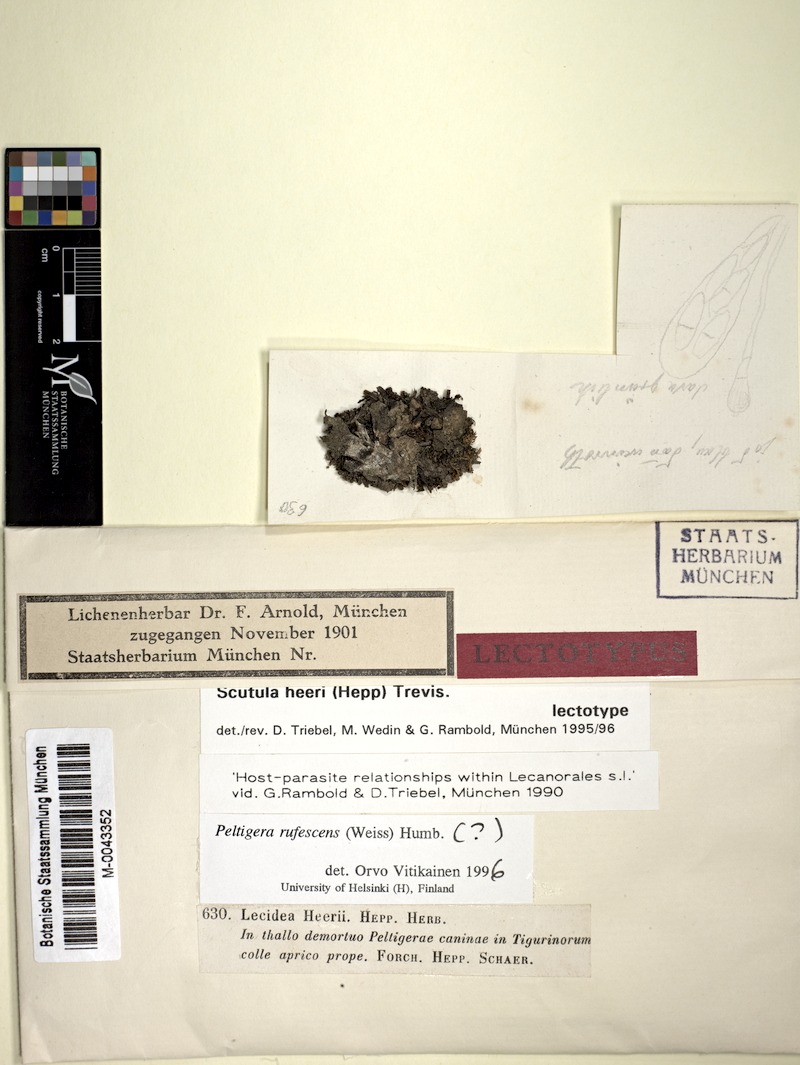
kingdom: Fungi
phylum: Ascomycota
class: Lecanoromycetes
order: Peltigerales
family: Peltigeraceae
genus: Peltigera
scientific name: Peltigera rufescens
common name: Field dog lichen
